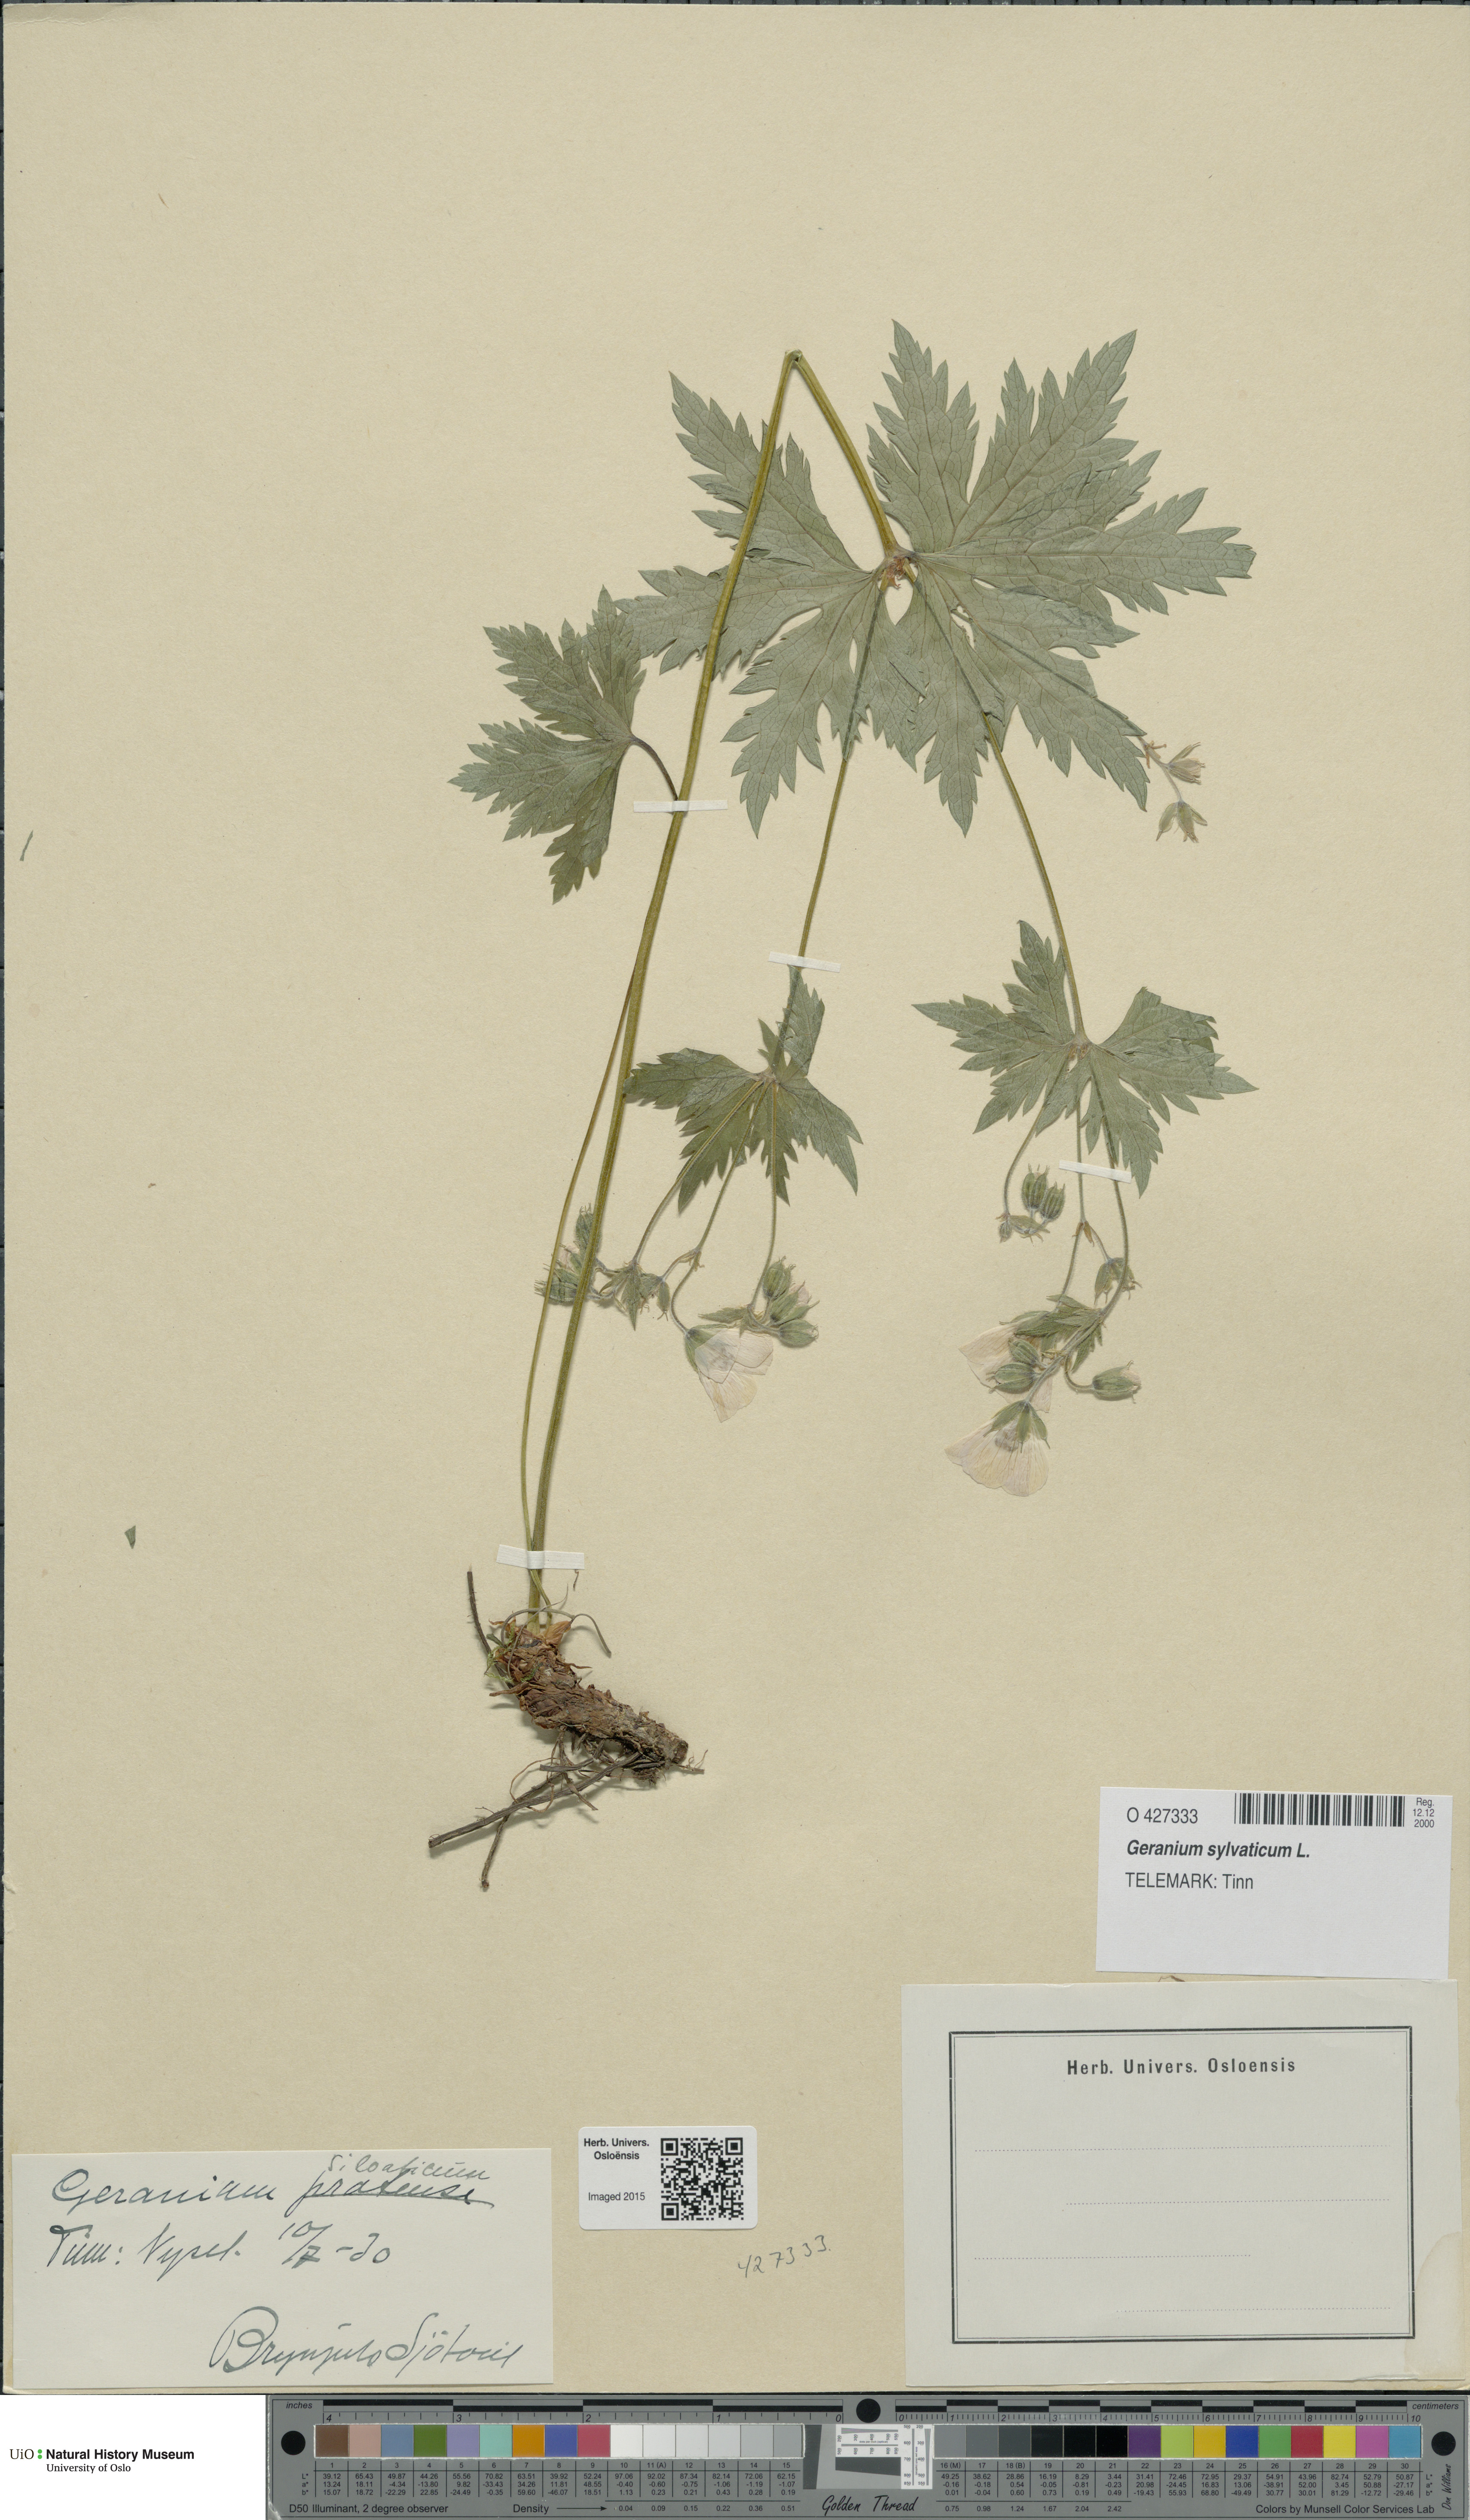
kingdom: Plantae
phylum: Tracheophyta
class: Magnoliopsida
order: Geraniales
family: Geraniaceae
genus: Geranium
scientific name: Geranium sylvaticum
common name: Wood crane's-bill
